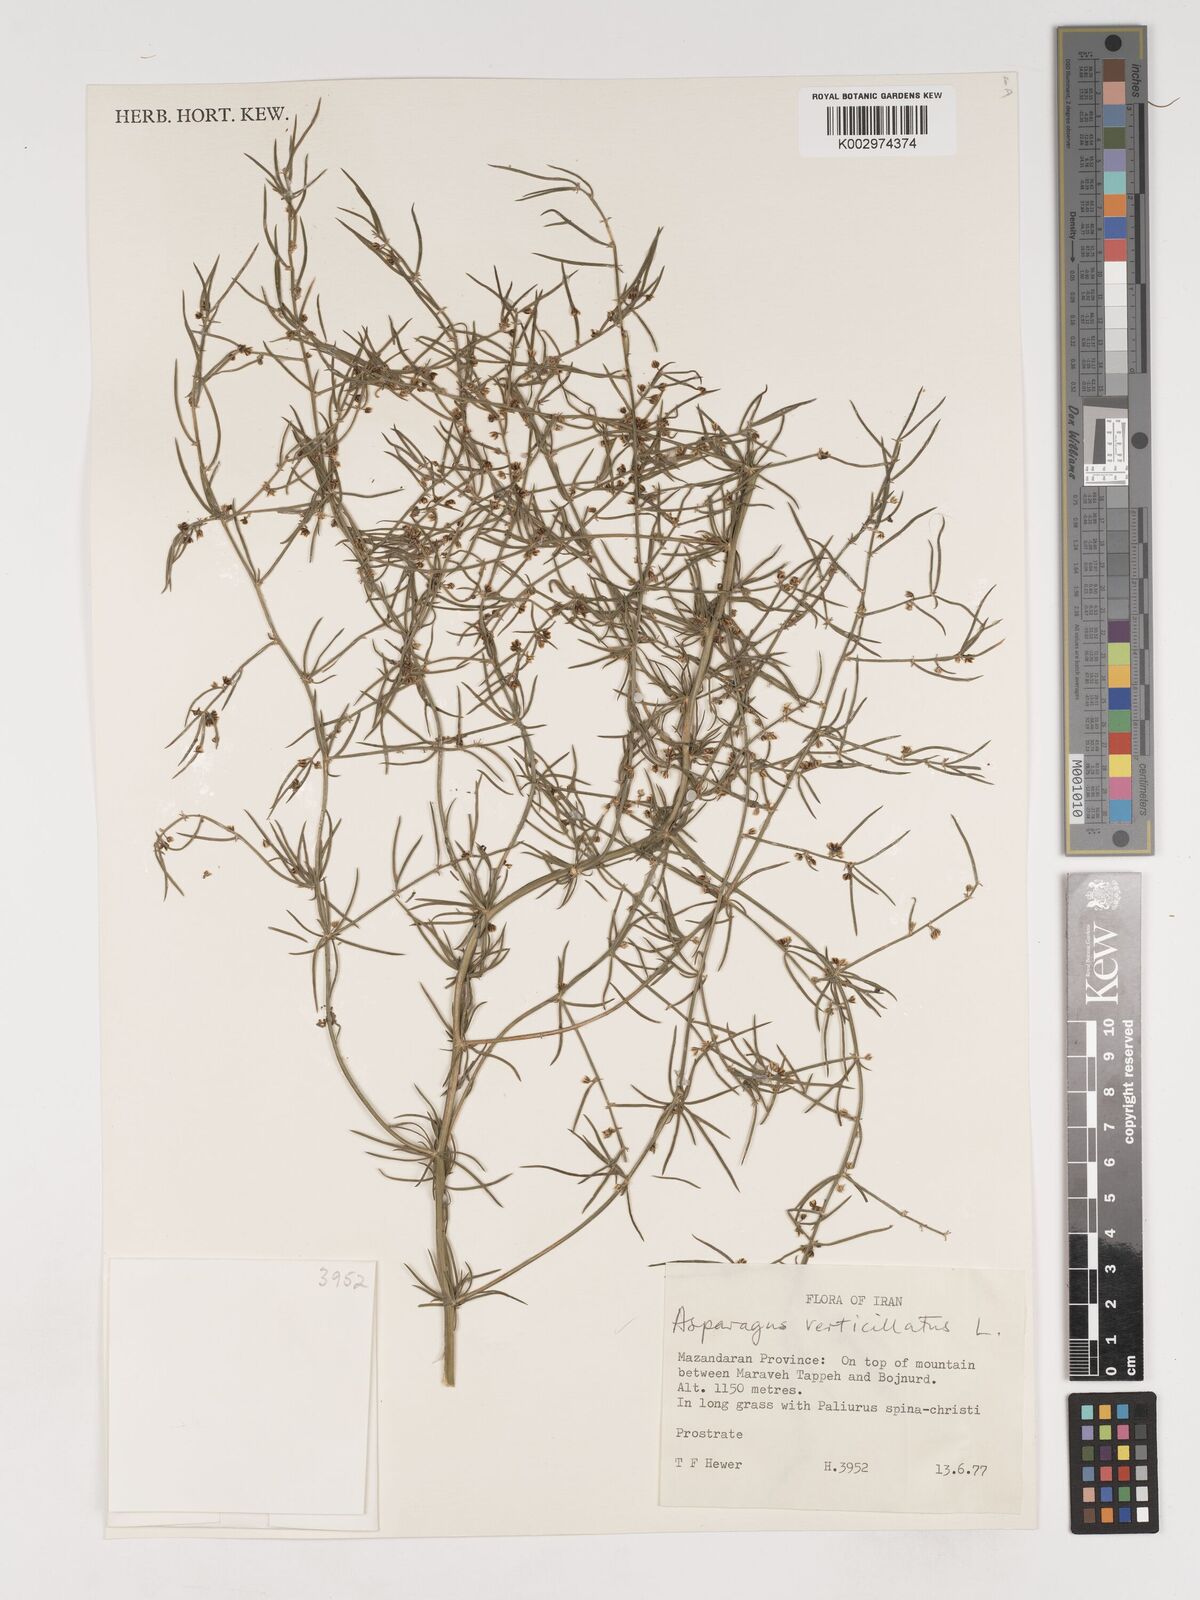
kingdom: Plantae
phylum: Tracheophyta
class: Liliopsida
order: Asparagales
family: Asparagaceae
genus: Asparagus
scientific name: Asparagus verticillatus
